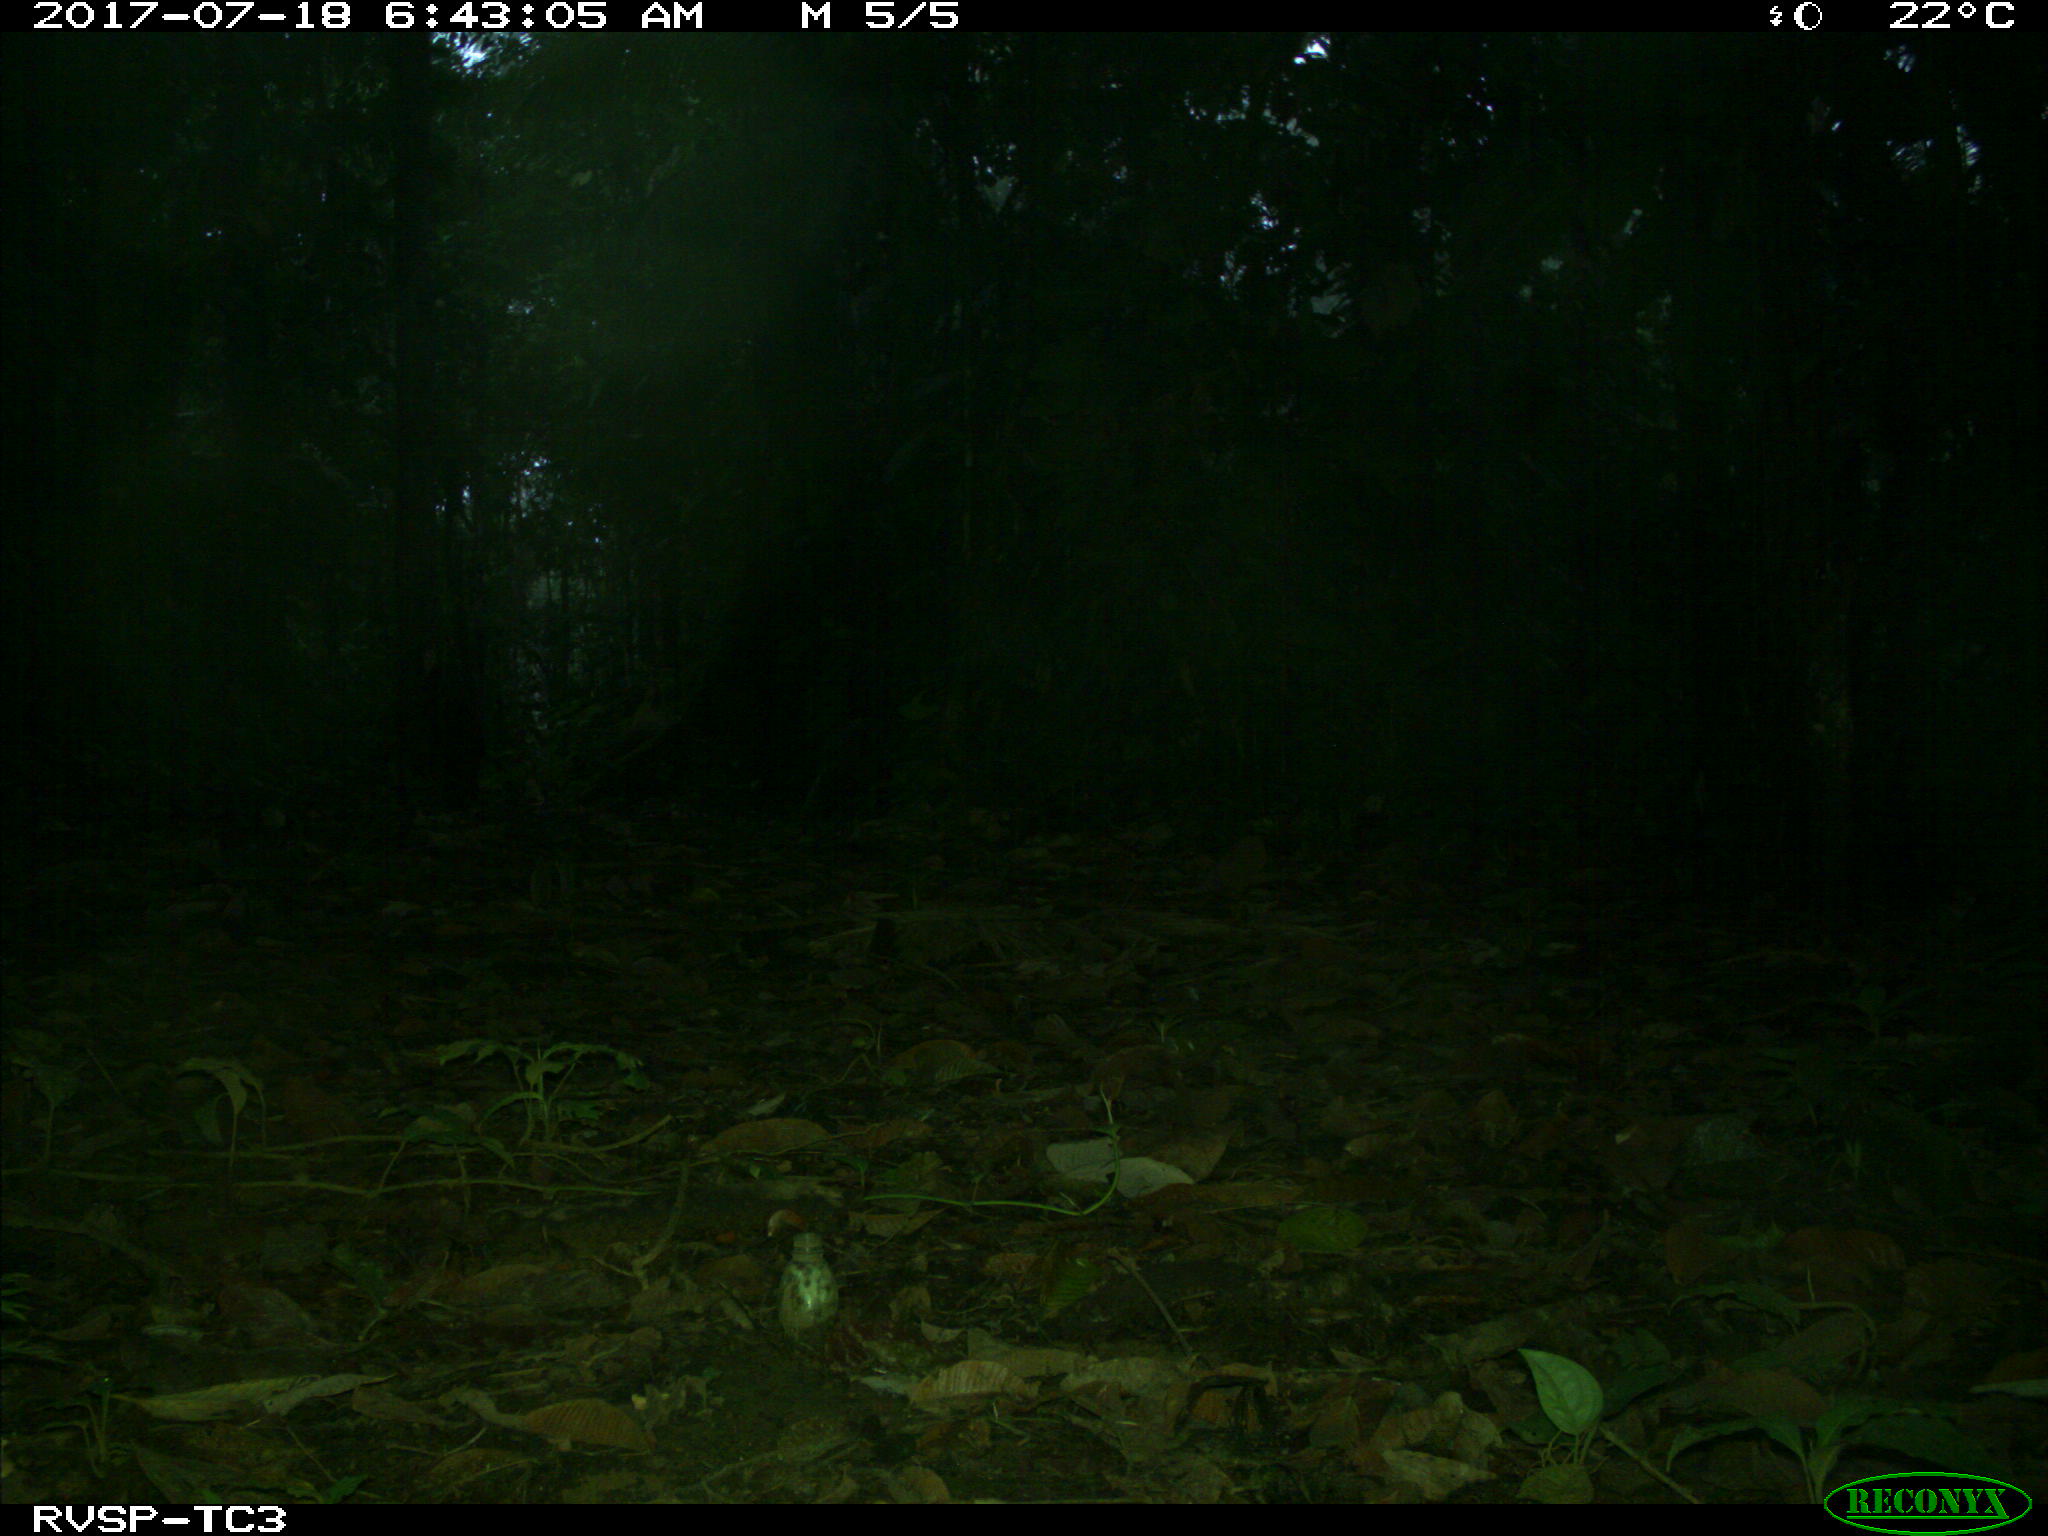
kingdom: Animalia
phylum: Chordata
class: Aves
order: Tinamiformes
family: Tinamidae
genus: Tinamus
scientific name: Tinamus major
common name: Great tinamou
